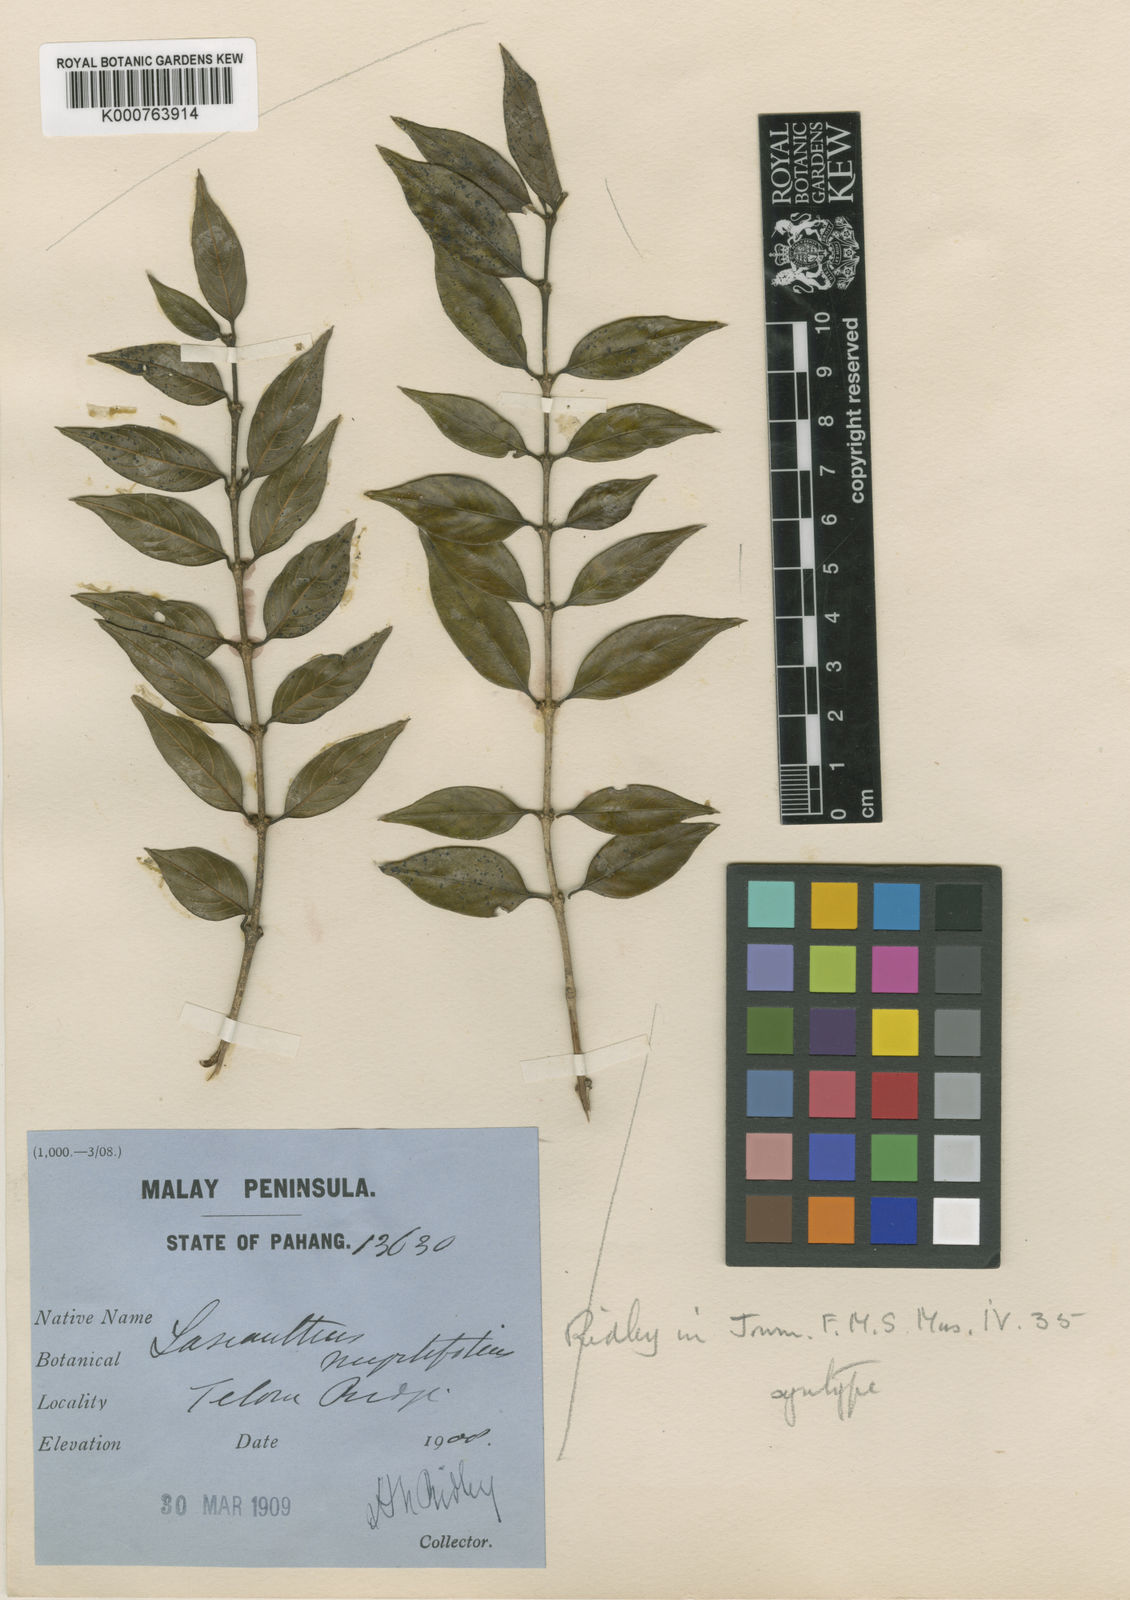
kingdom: Plantae
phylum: Tracheophyta
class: Magnoliopsida
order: Gentianales
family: Rubiaceae
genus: Lasianthus
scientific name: Lasianthus myrtifolius
